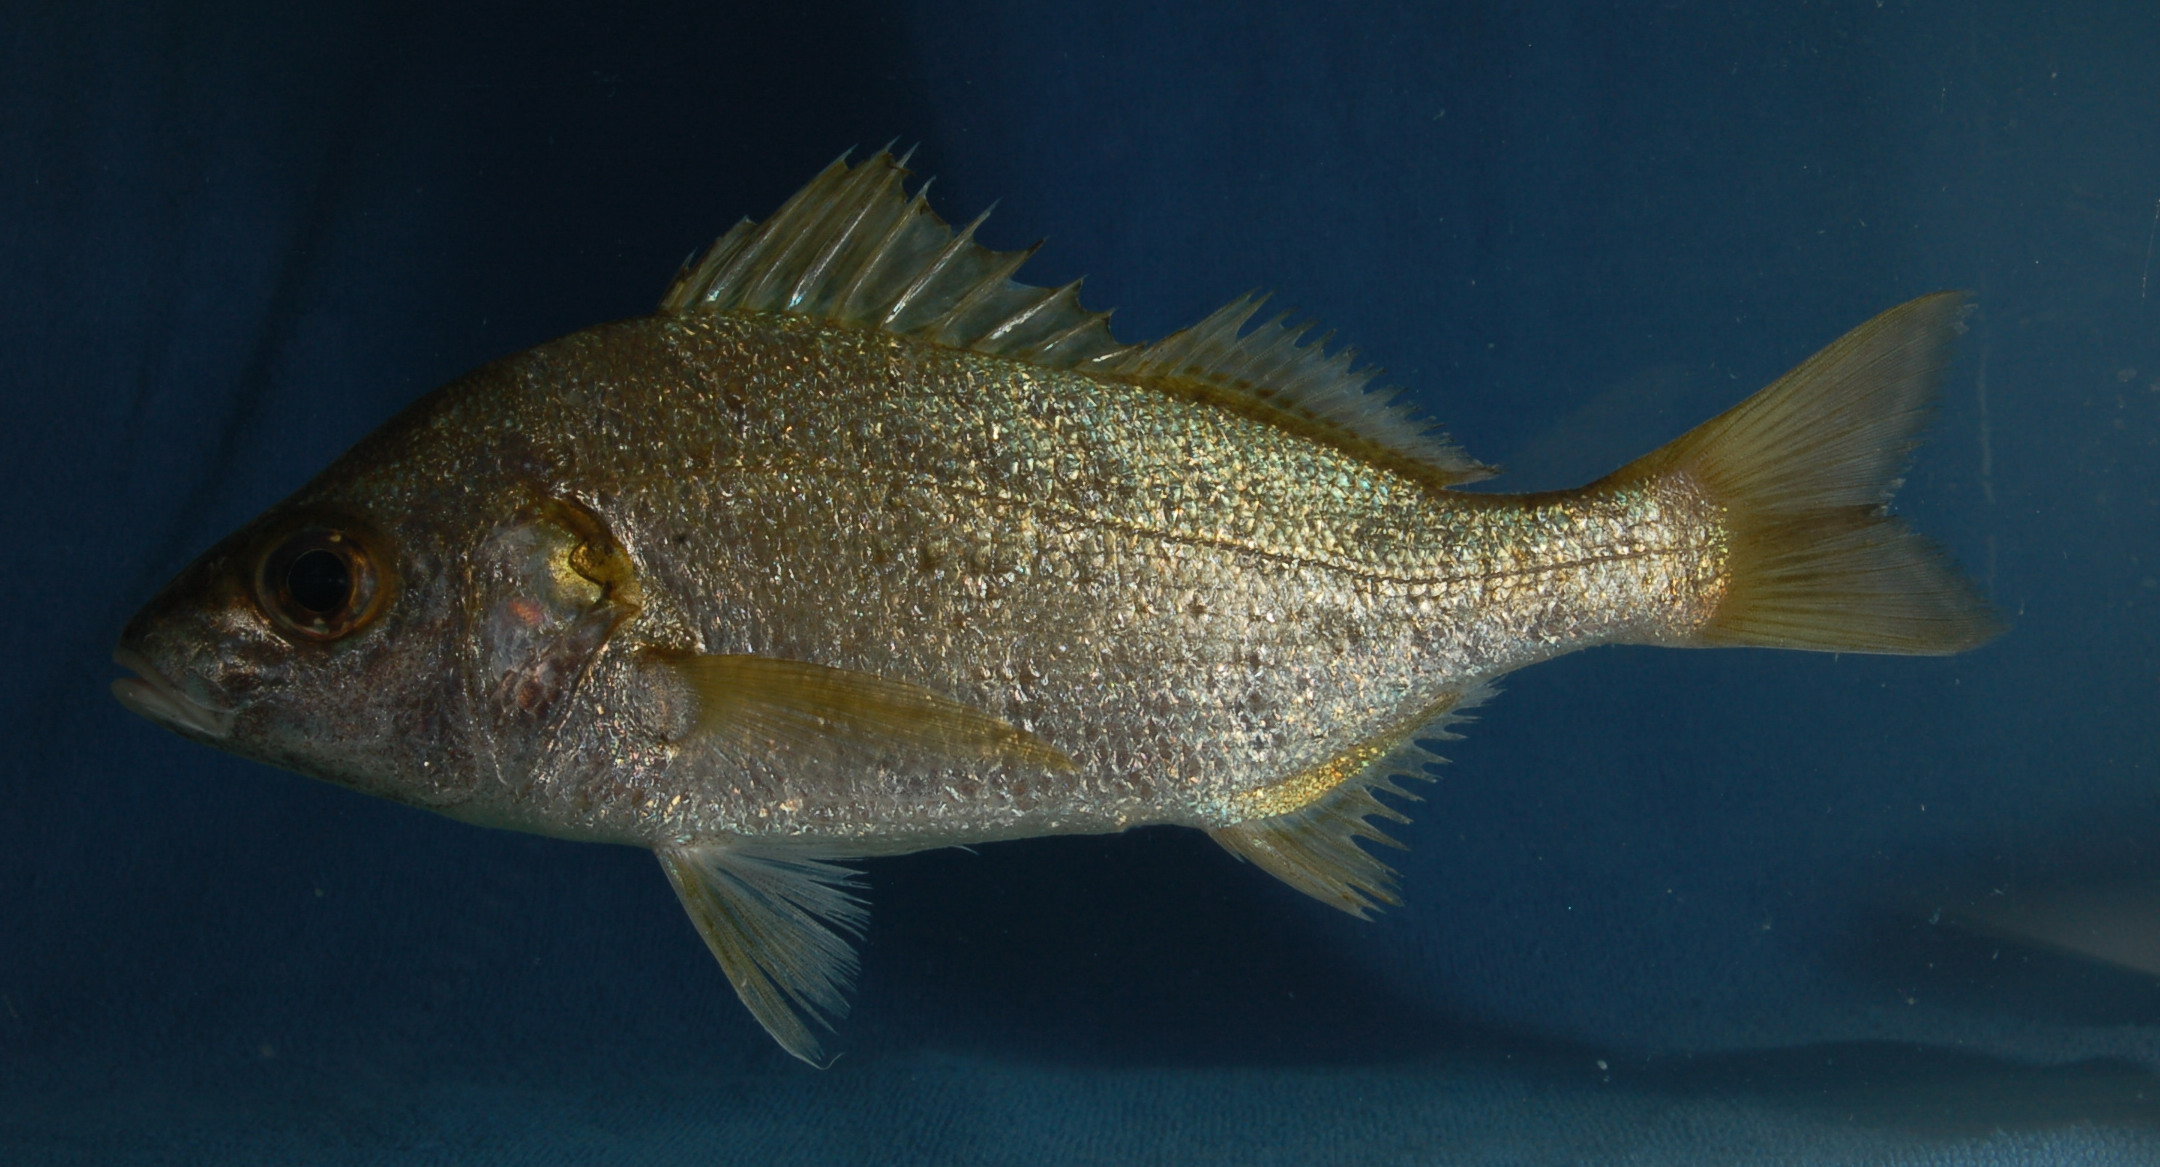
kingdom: Animalia
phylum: Chordata
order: Perciformes
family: Haemulidae
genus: Pomadasys
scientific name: Pomadasys olivaceus
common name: Olive grunt
